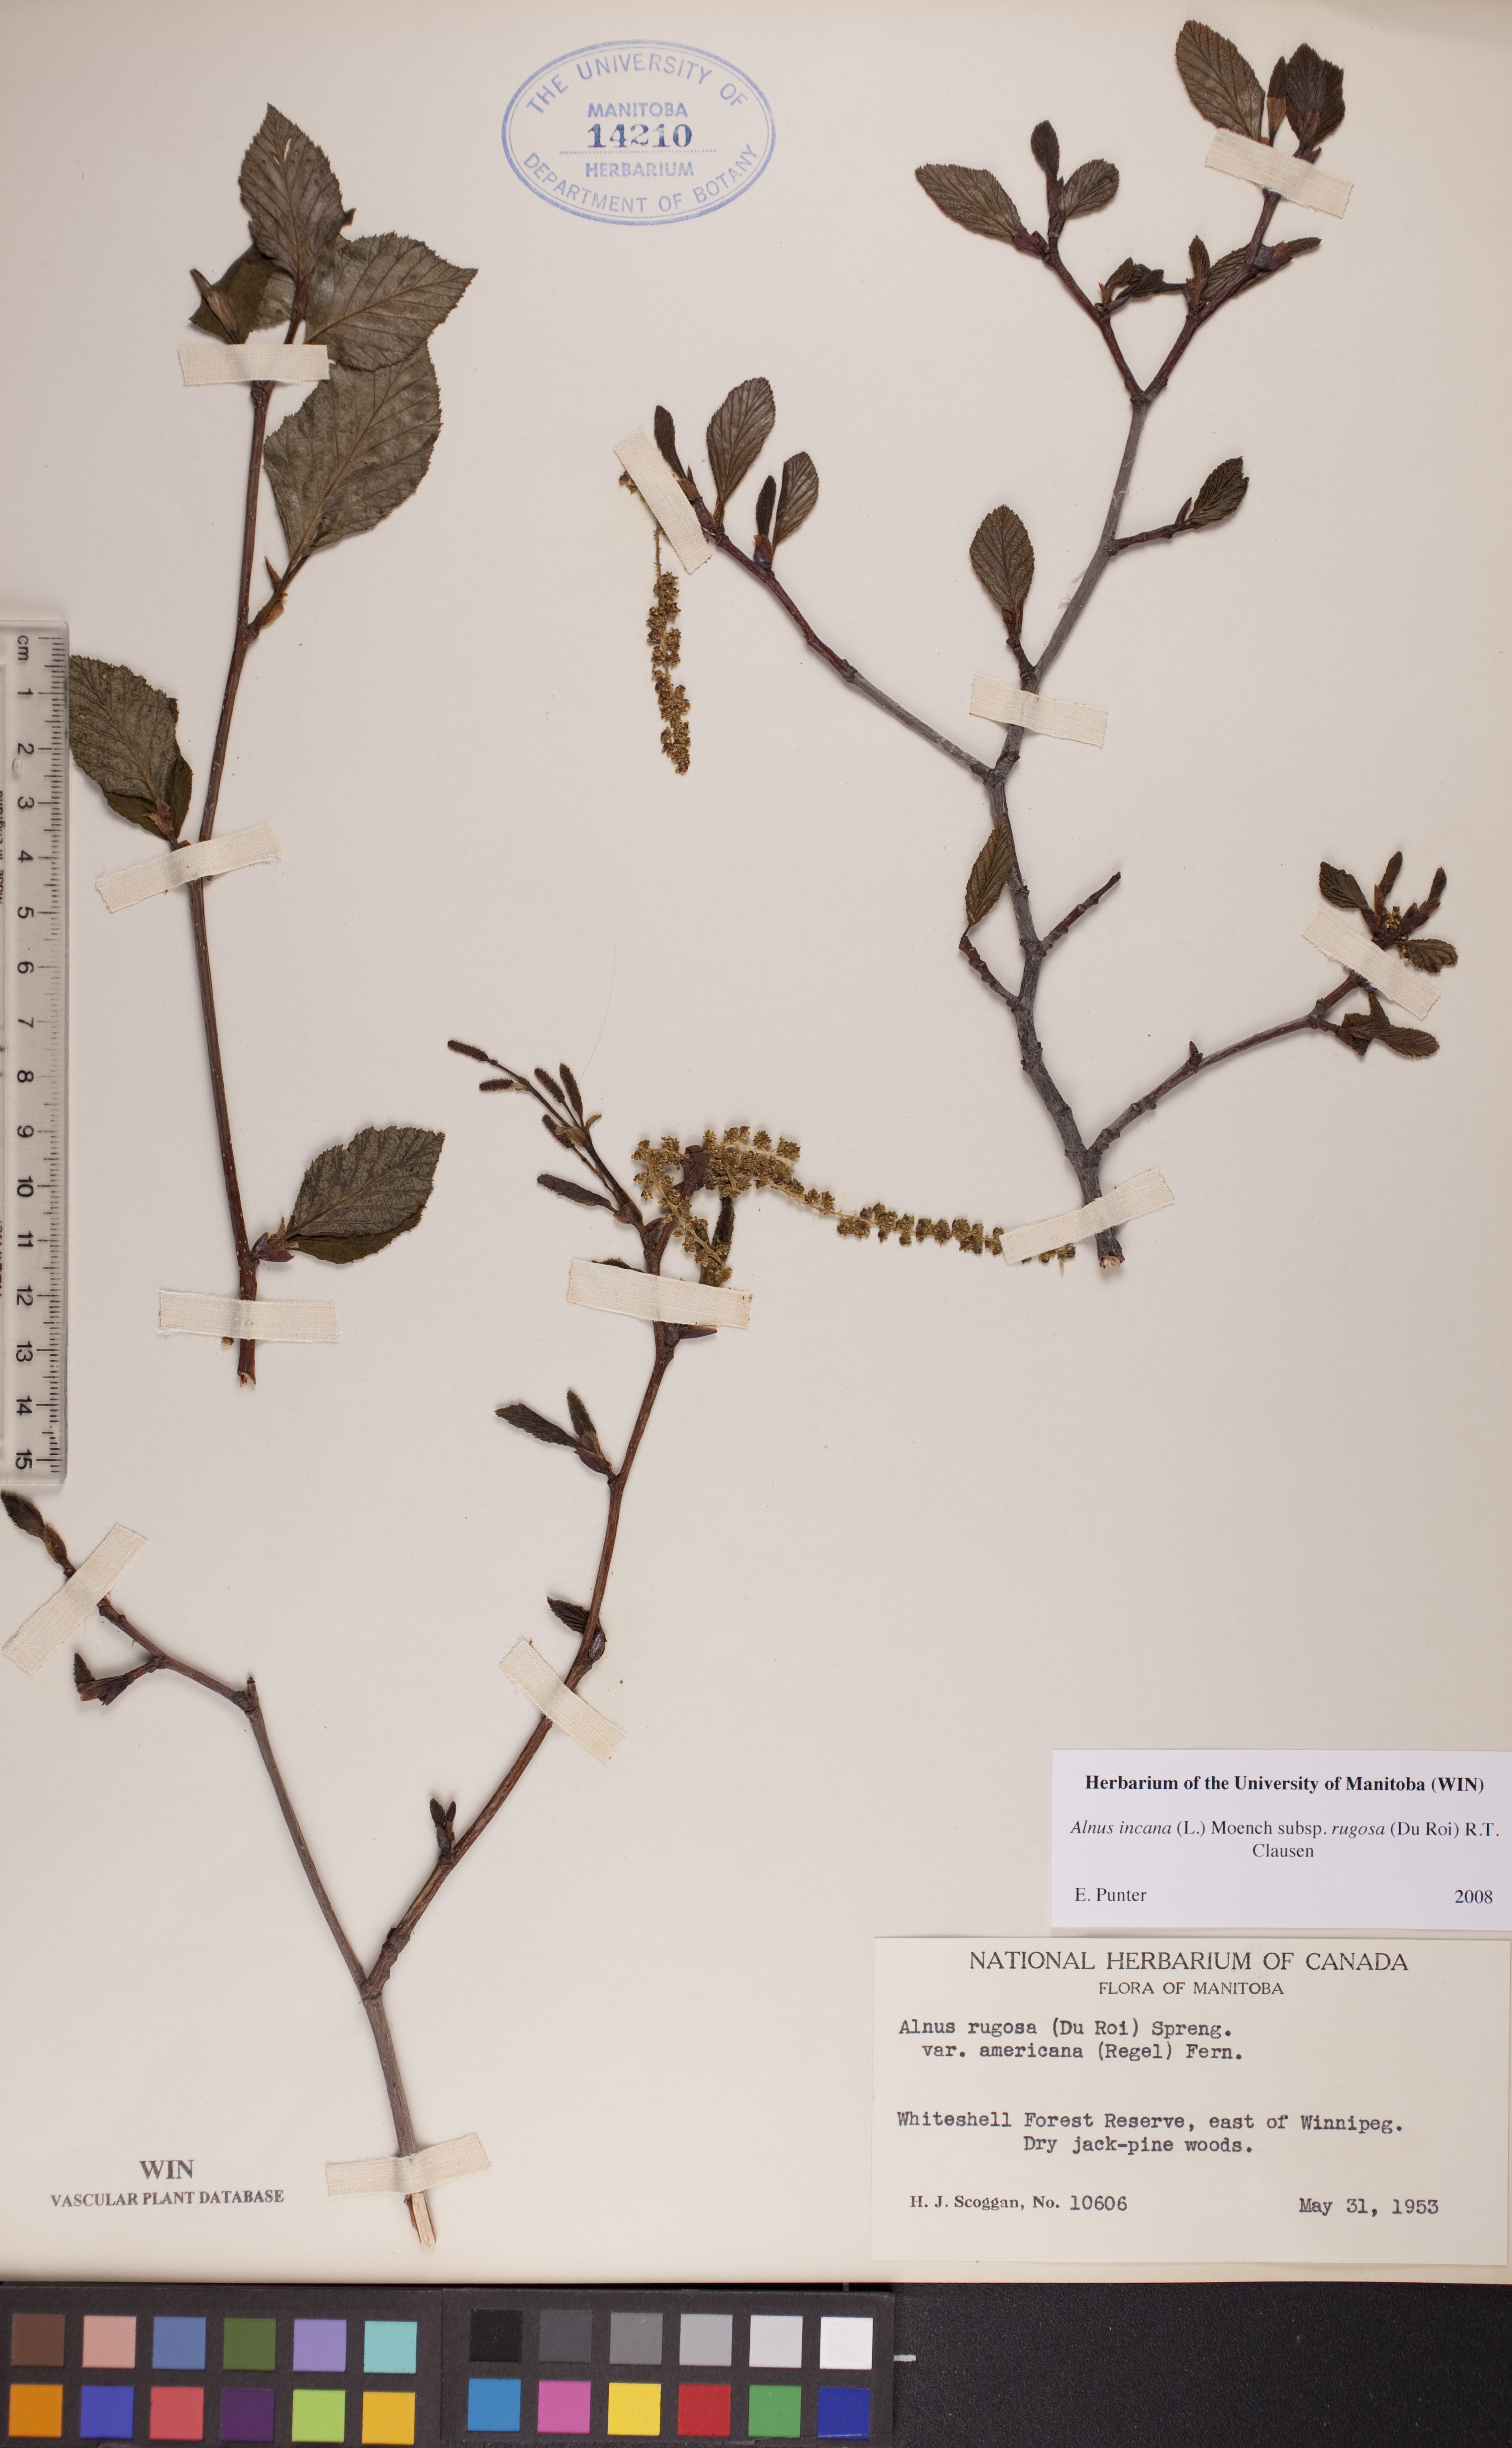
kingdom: Plantae
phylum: Tracheophyta
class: Magnoliopsida
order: Fagales
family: Betulaceae
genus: Alnus
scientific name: Alnus incana
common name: Grey alder
